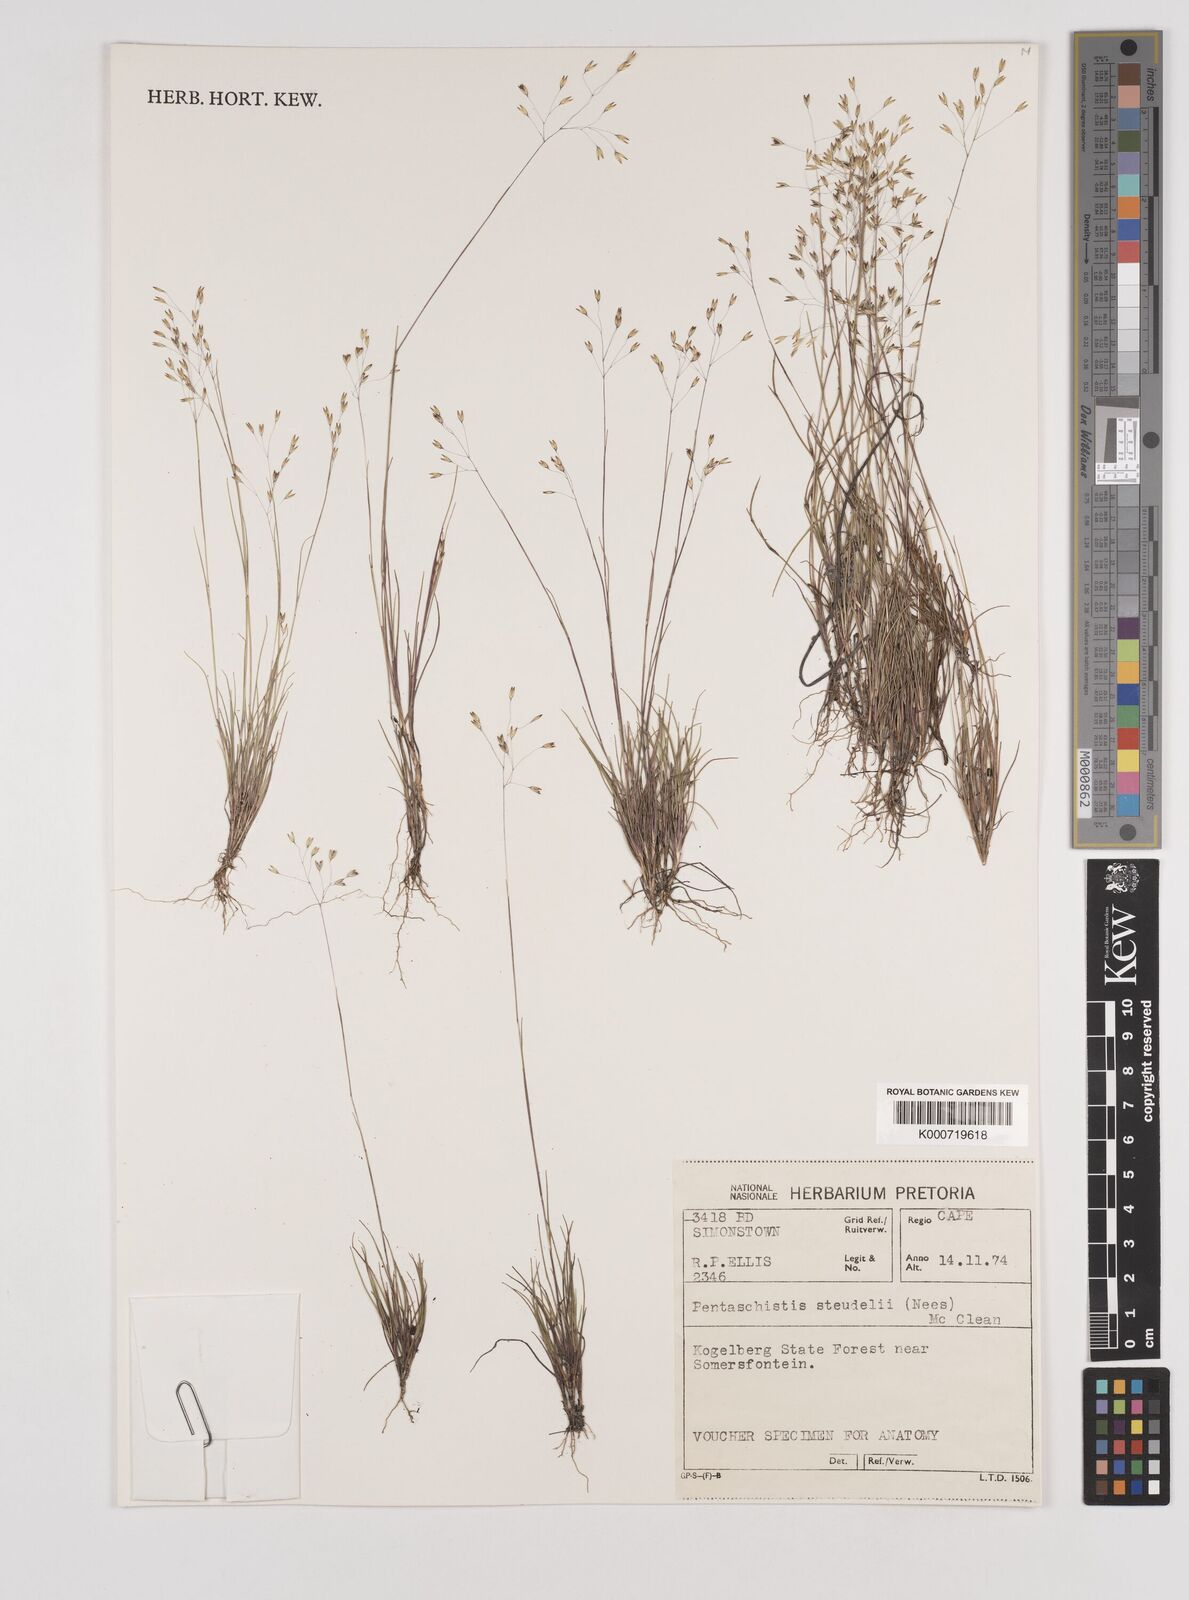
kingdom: Plantae
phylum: Tracheophyta
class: Liliopsida
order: Poales
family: Poaceae
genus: Pentameris
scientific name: Pentameris malouinensis
